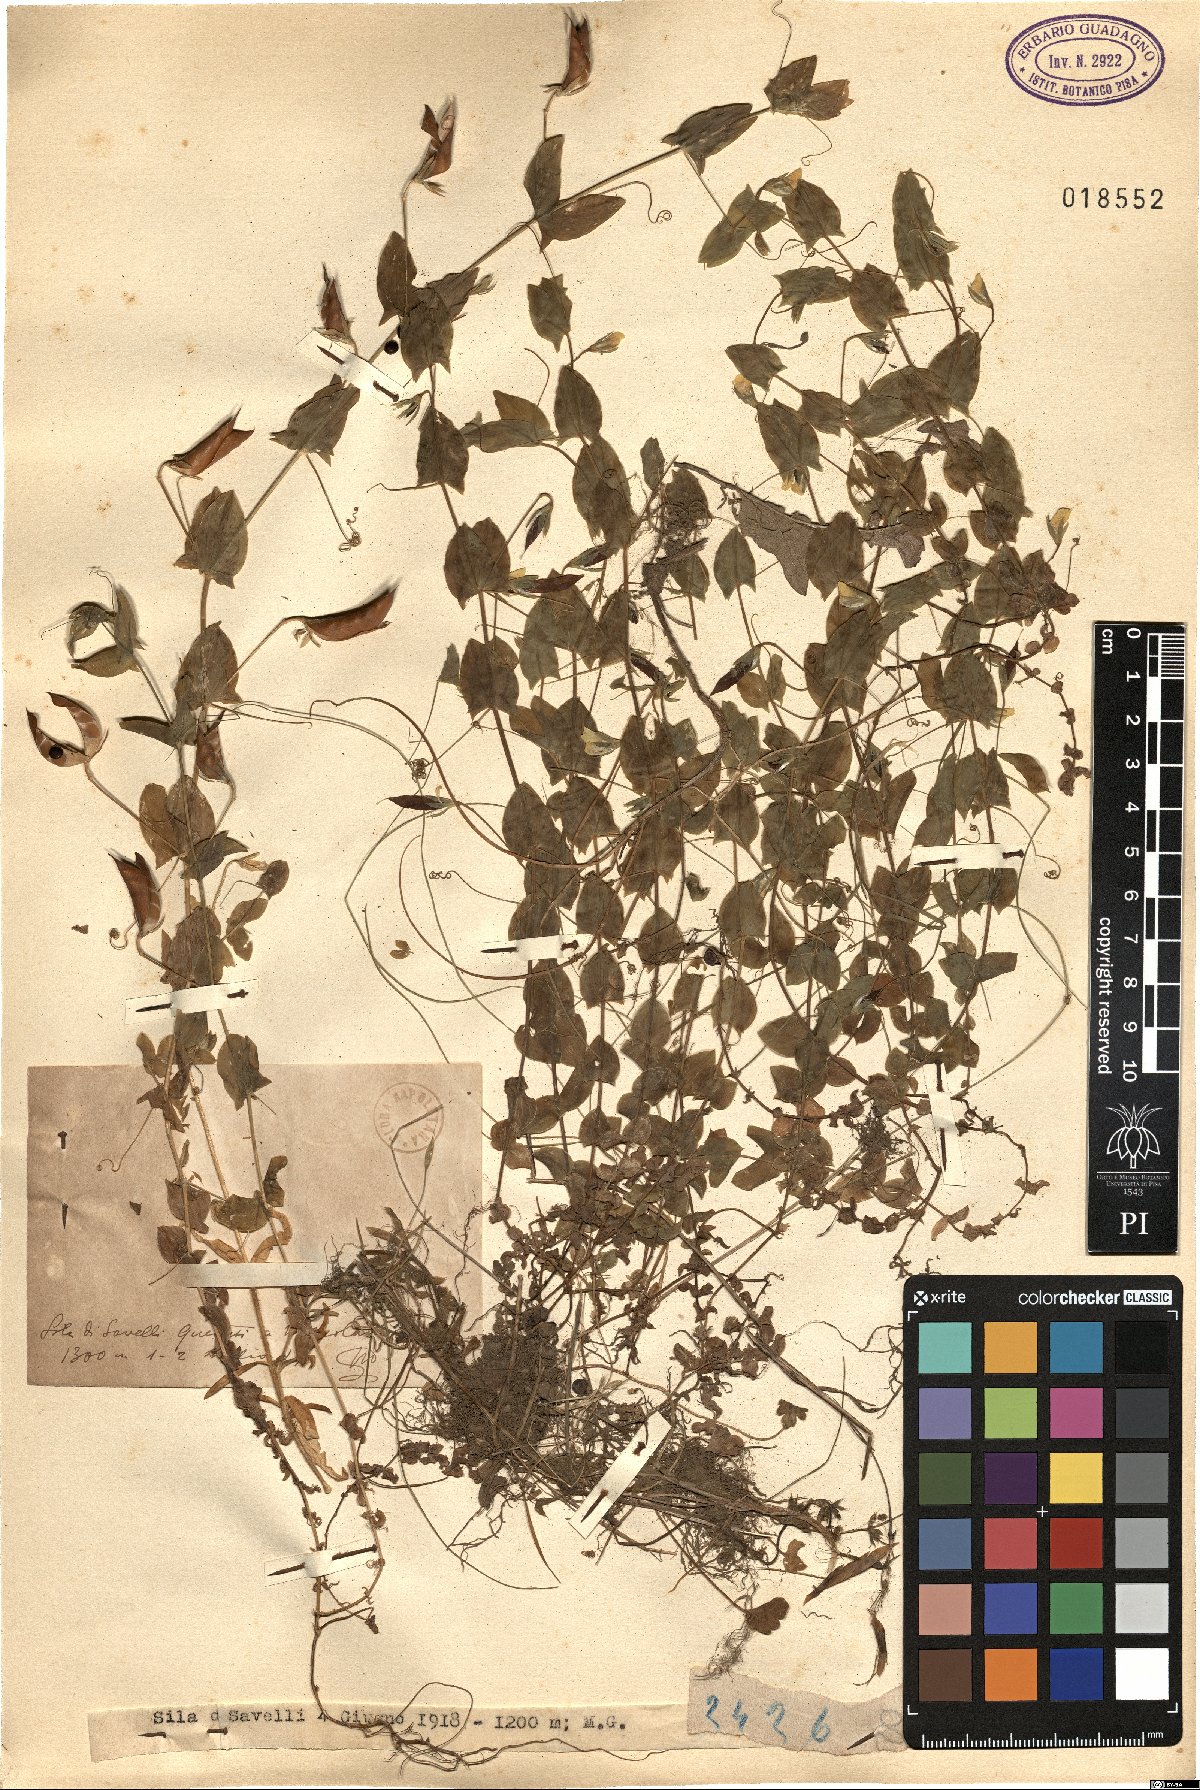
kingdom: Plantae
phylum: Tracheophyta
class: Magnoliopsida
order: Fabales
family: Fabaceae
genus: Lathyrus
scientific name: Lathyrus
